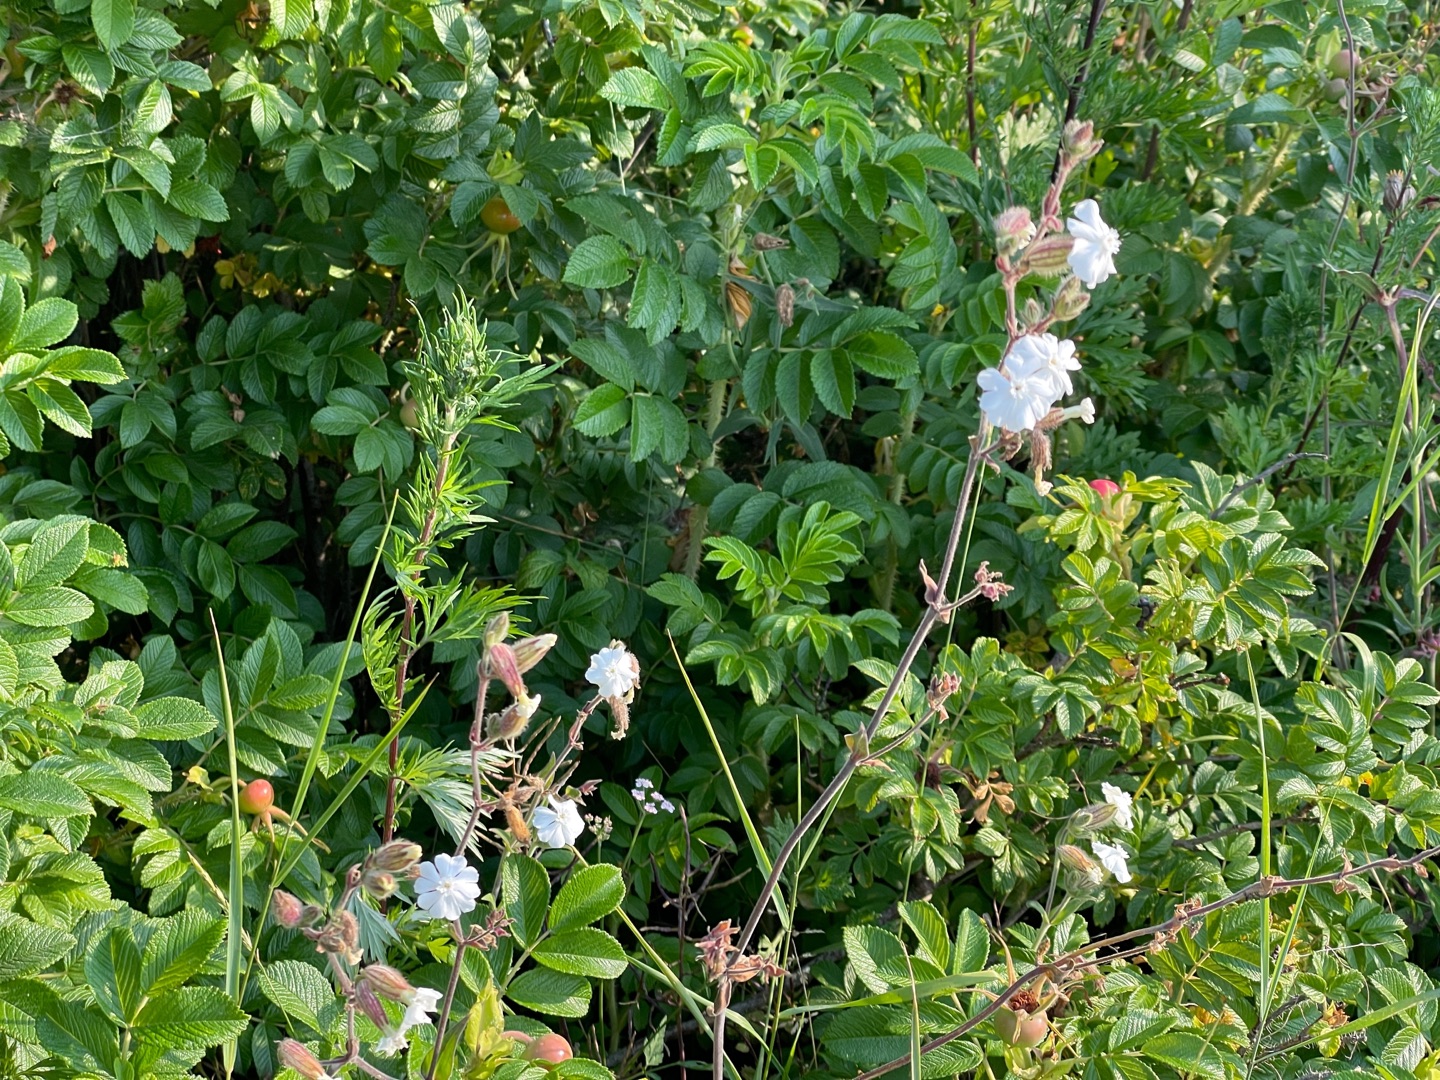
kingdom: Plantae
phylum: Tracheophyta
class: Magnoliopsida
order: Caryophyllales
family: Caryophyllaceae
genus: Silene
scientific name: Silene latifolia
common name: Aftenpragtstjerne
